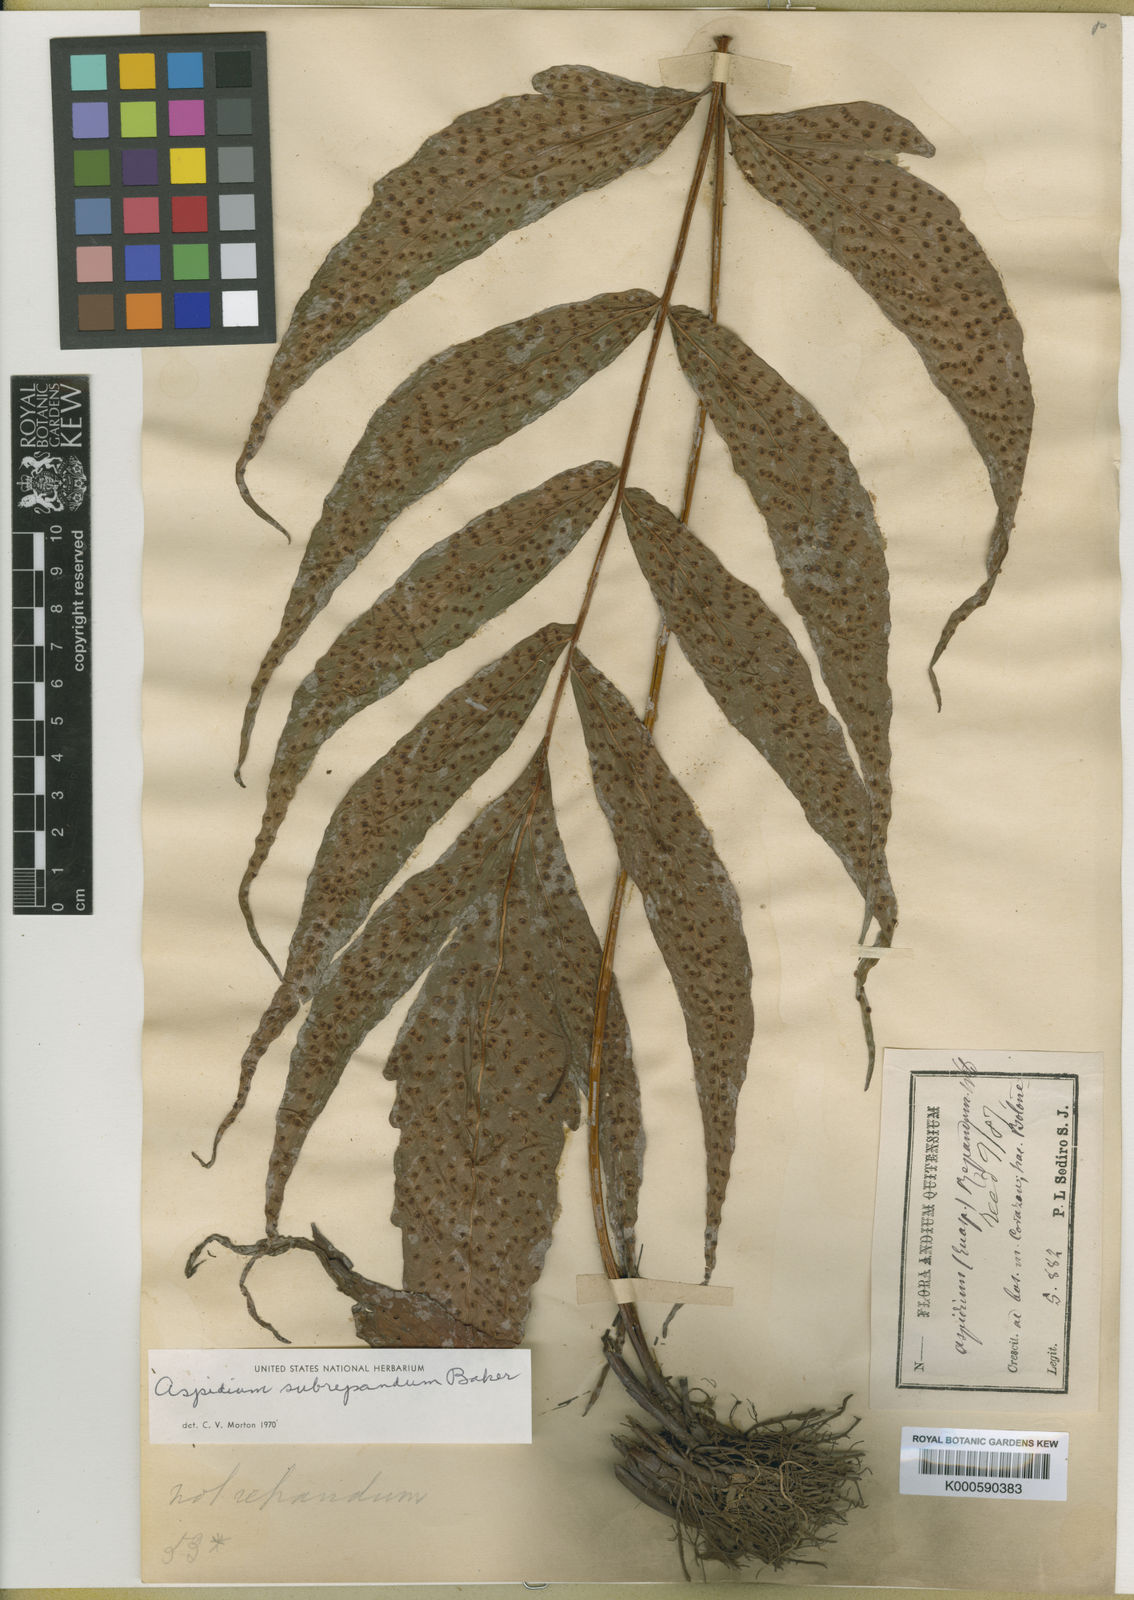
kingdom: Plantae
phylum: Tracheophyta
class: Polypodiopsida
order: Polypodiales
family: Tectariaceae
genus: Tectaria
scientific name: Tectaria subrepanda
